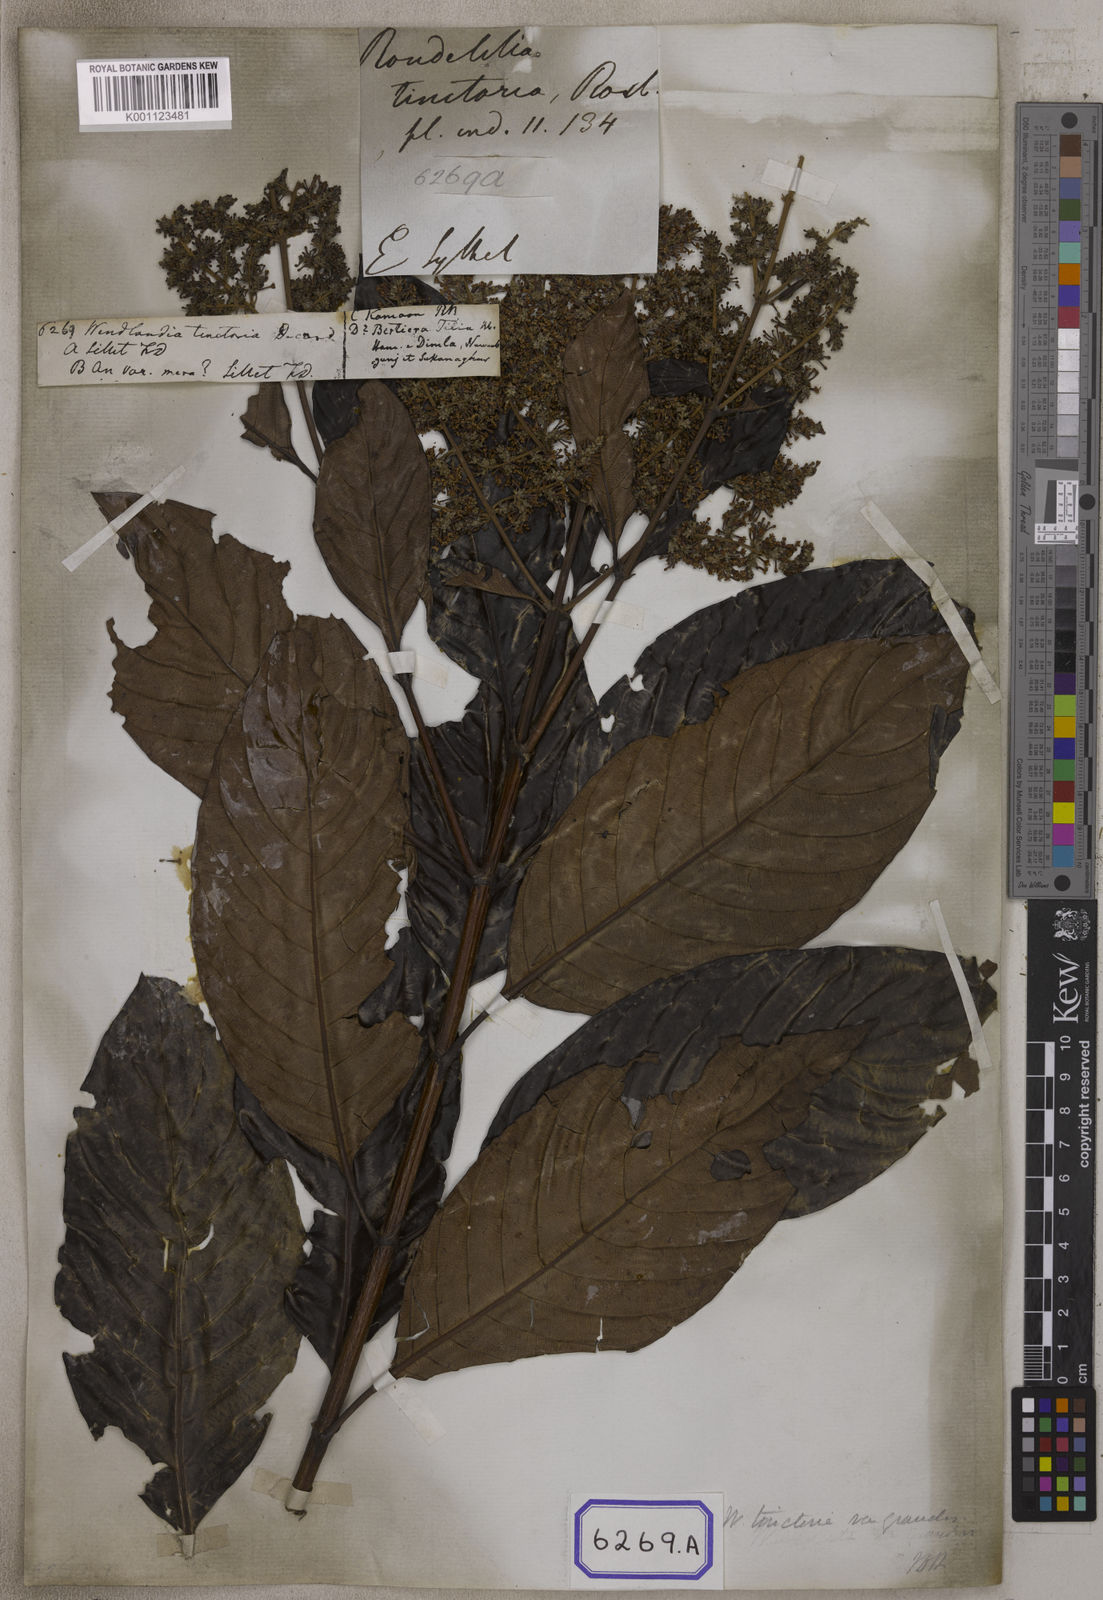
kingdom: Plantae
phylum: Tracheophyta
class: Magnoliopsida
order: Gentianales
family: Rubiaceae
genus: Wendlandia
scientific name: Wendlandia tinctoria
